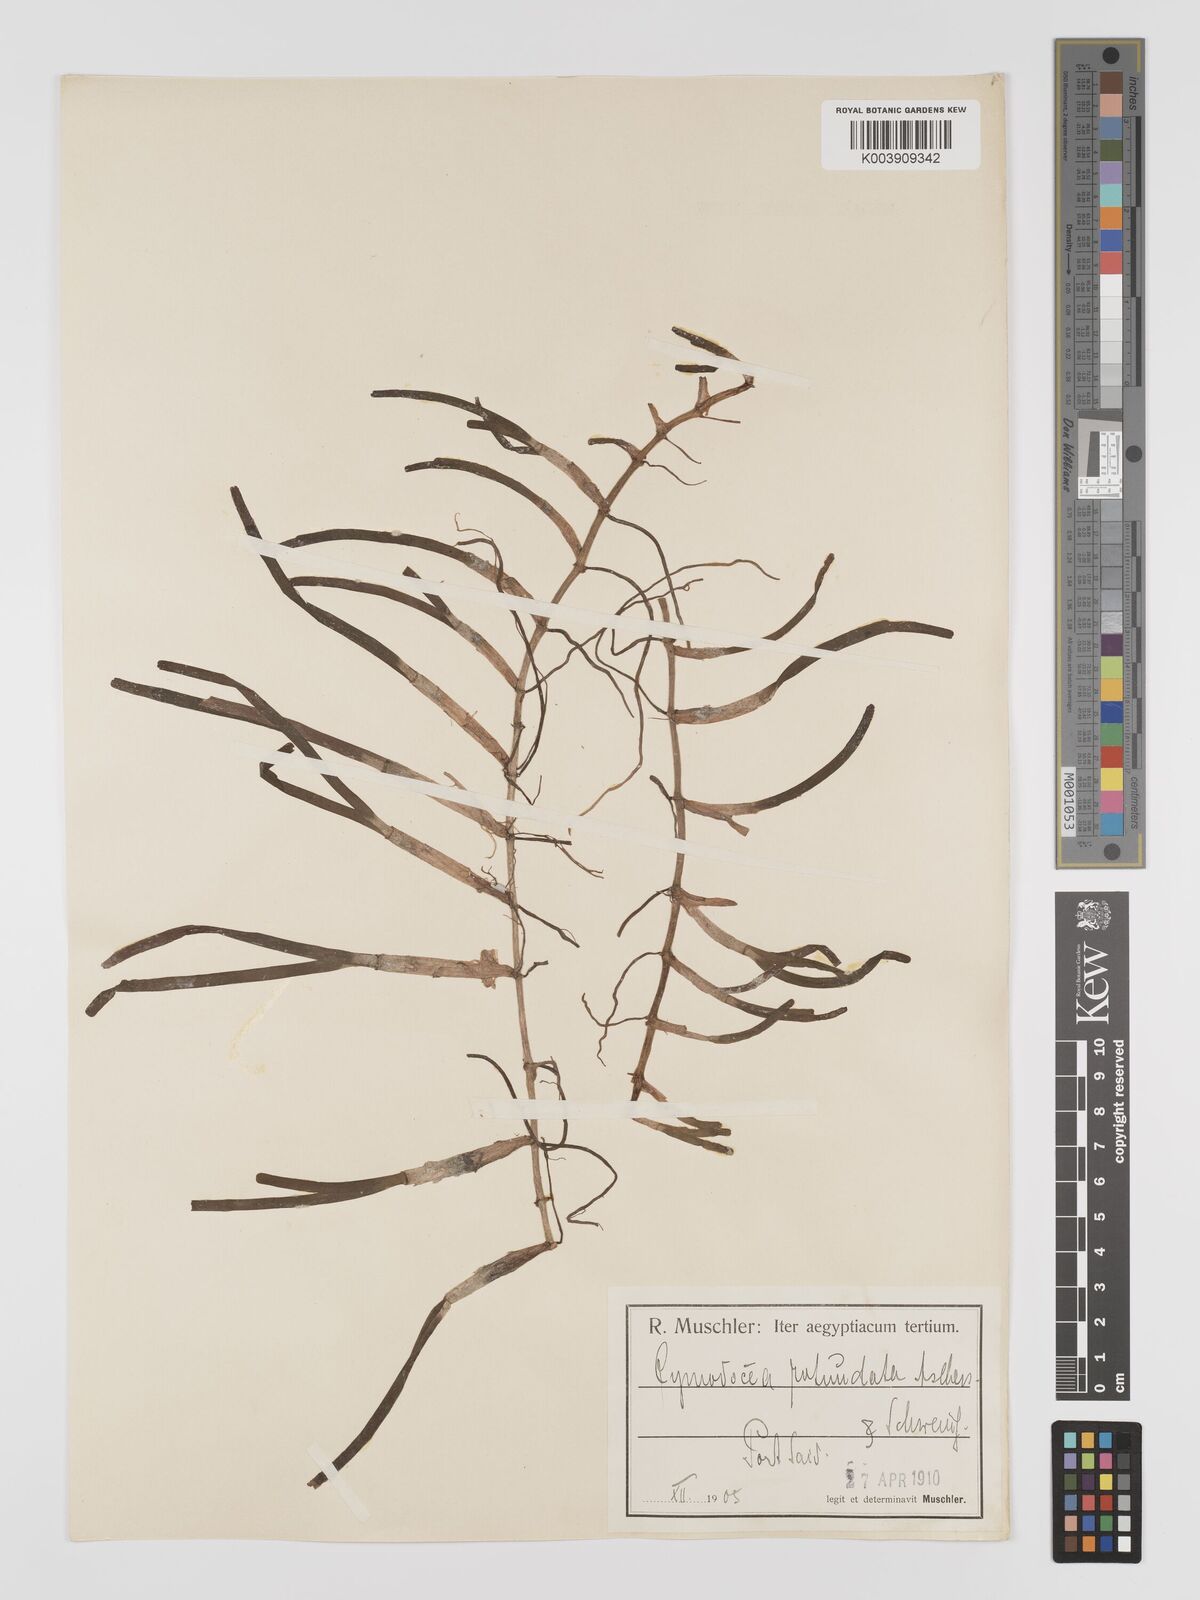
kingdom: Plantae
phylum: Tracheophyta
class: Liliopsida
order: Alismatales
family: Cymodoceaceae
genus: Cymodocea
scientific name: Cymodocea rotundata
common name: Species code: cr
